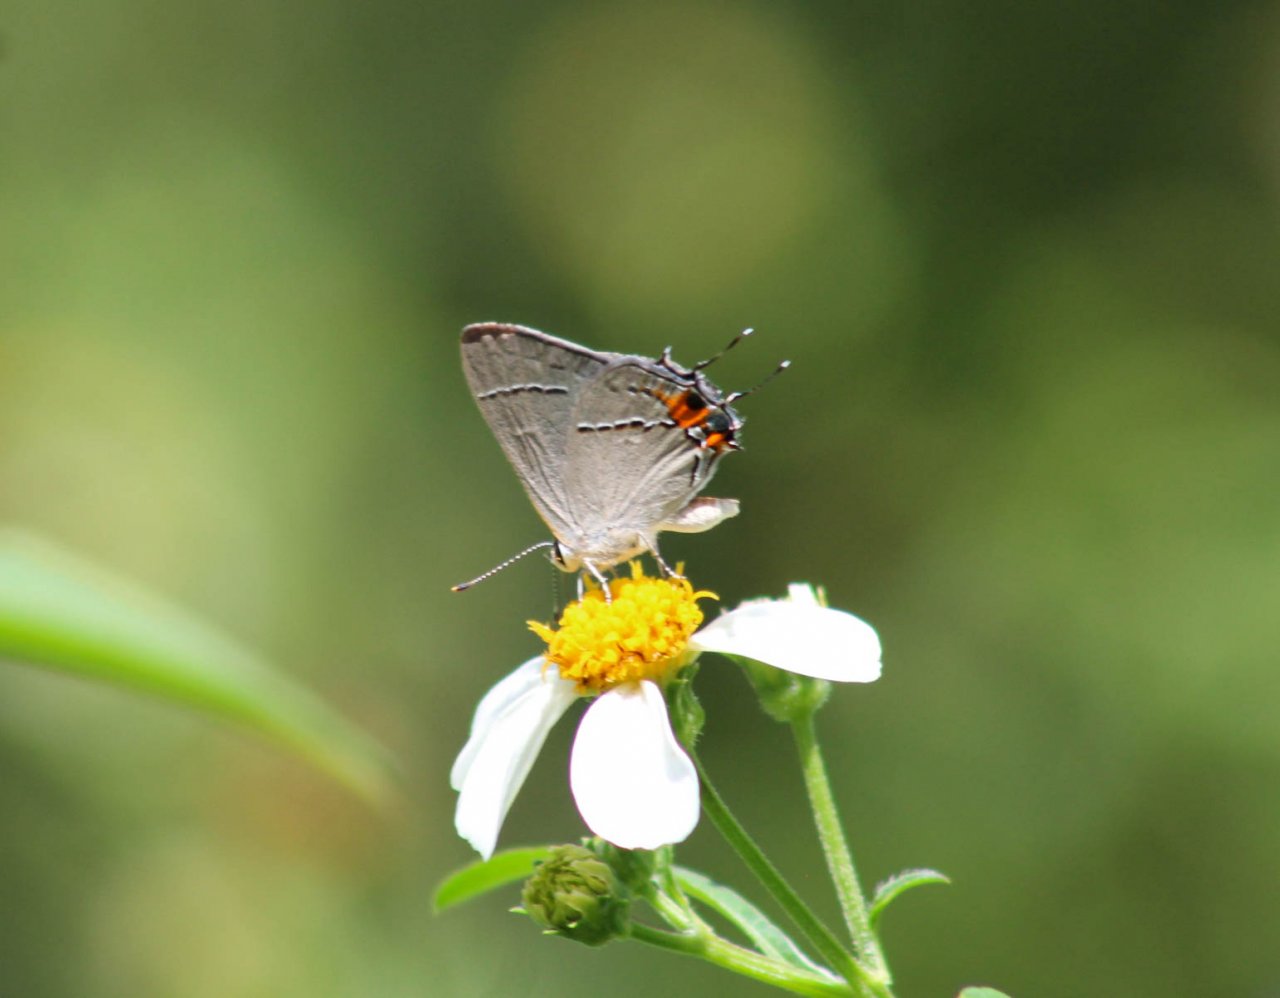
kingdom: Animalia
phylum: Arthropoda
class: Insecta
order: Lepidoptera
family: Lycaenidae
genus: Strymon
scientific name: Strymon melinus
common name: Gray Hairstreak
